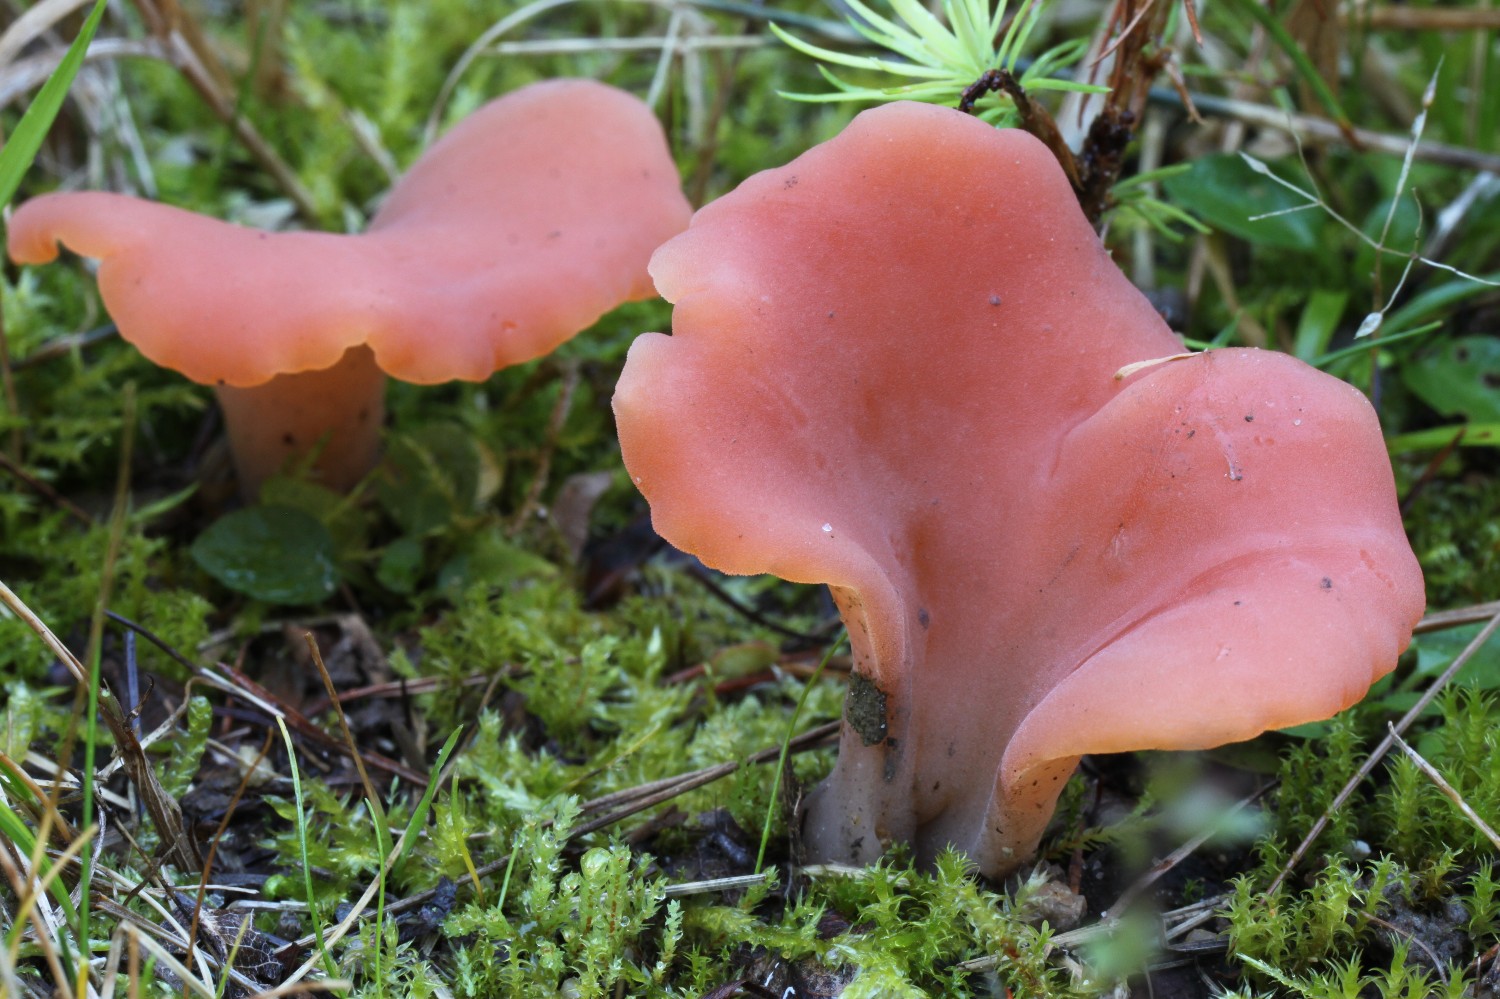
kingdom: Fungi
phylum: Basidiomycota
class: Agaricomycetes
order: Auriculariales
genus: Guepinia
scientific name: Guepinia helvelloides
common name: bævretunge
